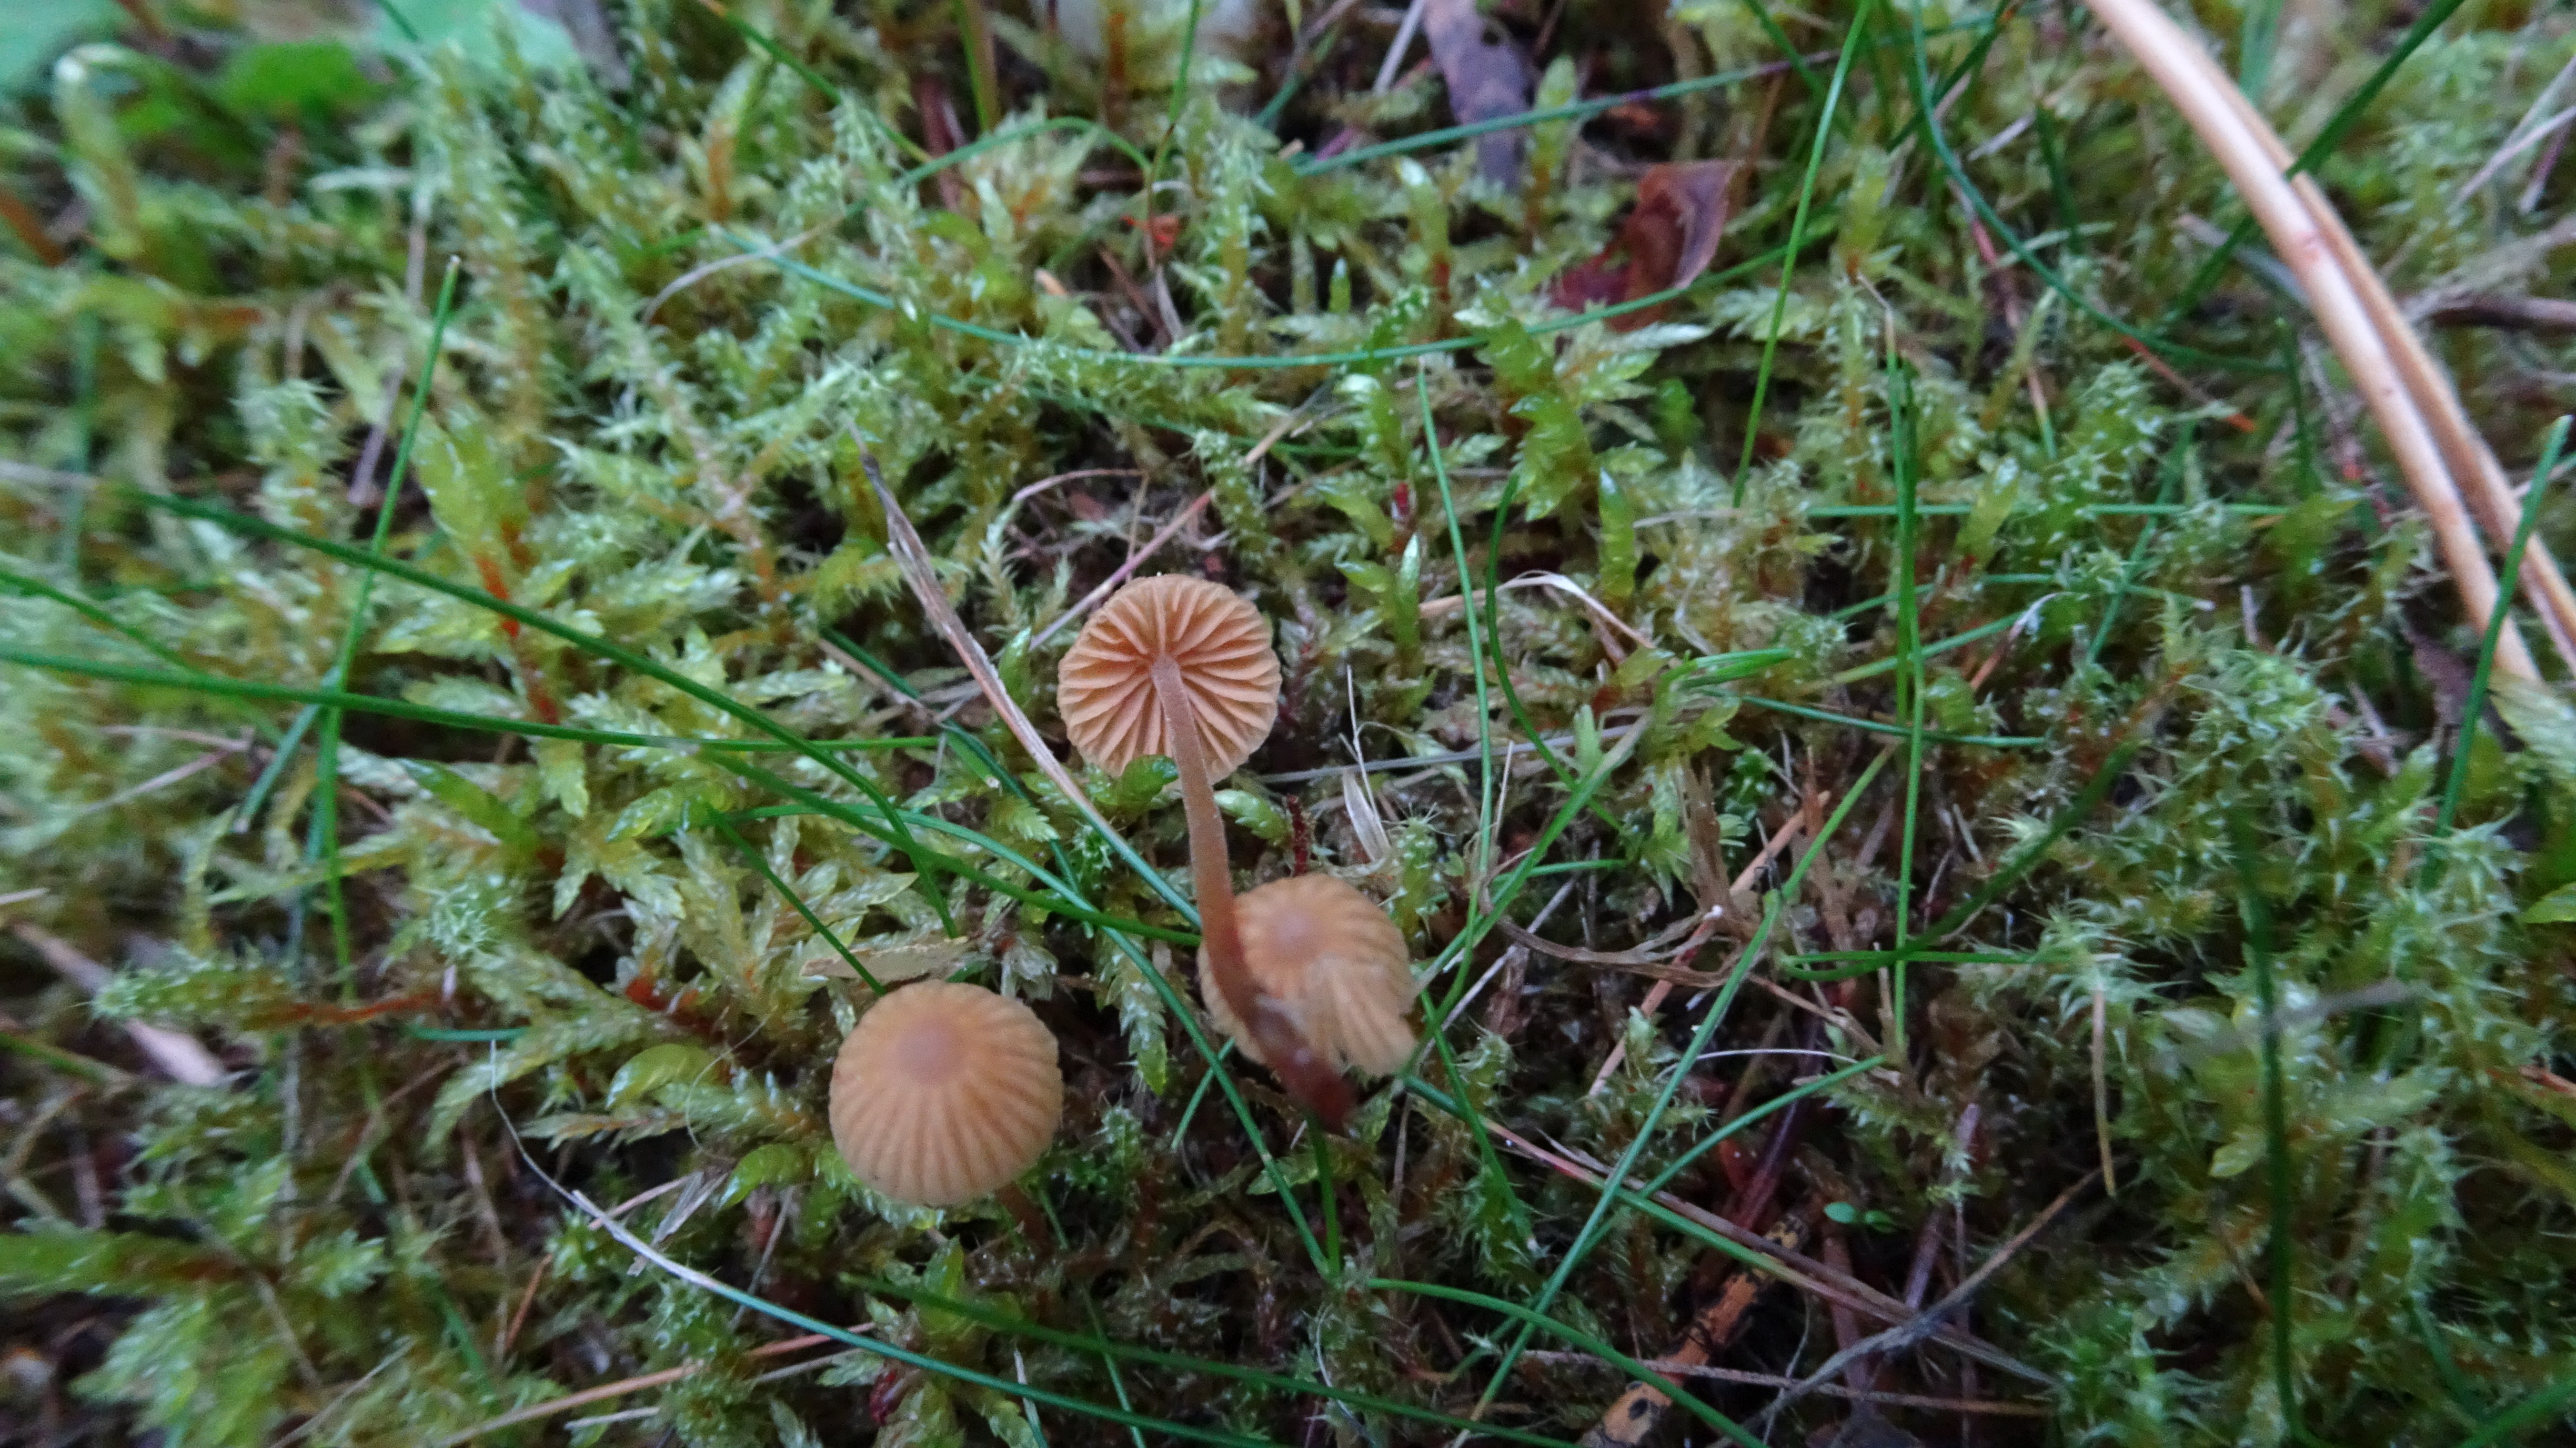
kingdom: Fungi
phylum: Basidiomycota
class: Agaricomycetes
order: Agaricales
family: Hymenogastraceae
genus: Galerina
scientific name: Galerina
